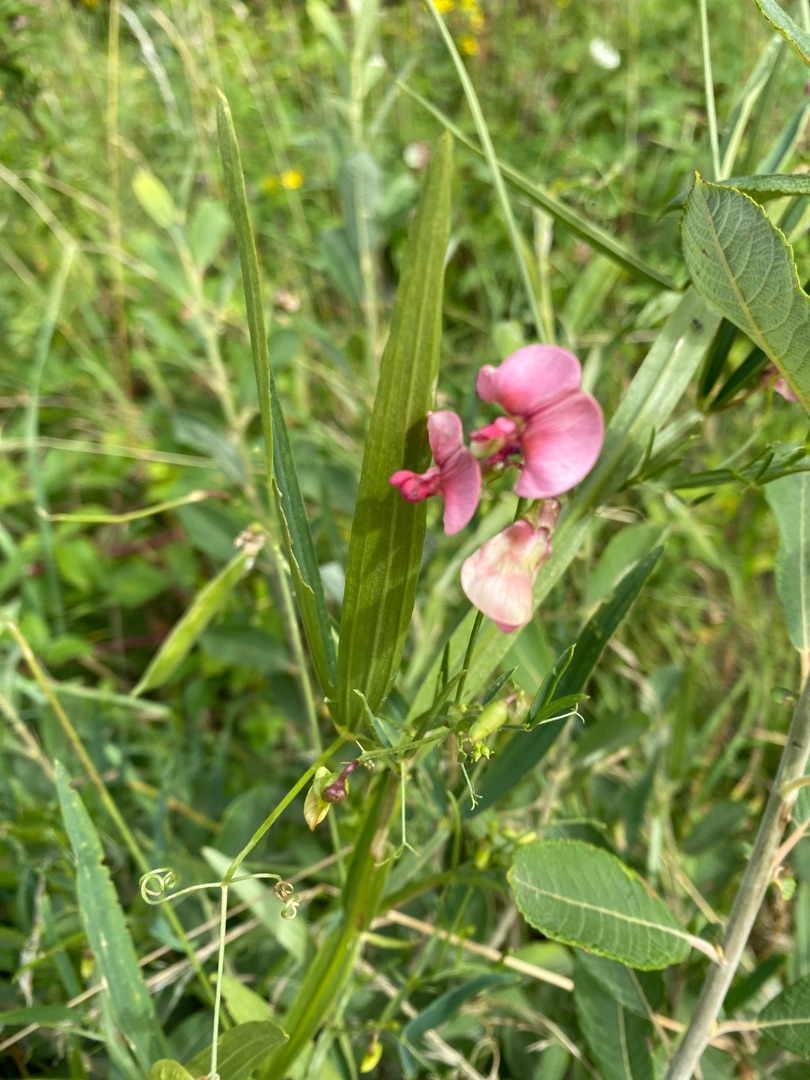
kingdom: Plantae
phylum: Tracheophyta
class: Magnoliopsida
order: Fabales
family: Fabaceae
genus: Lathyrus
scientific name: Lathyrus sylvestris
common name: Skov-fladbælg
